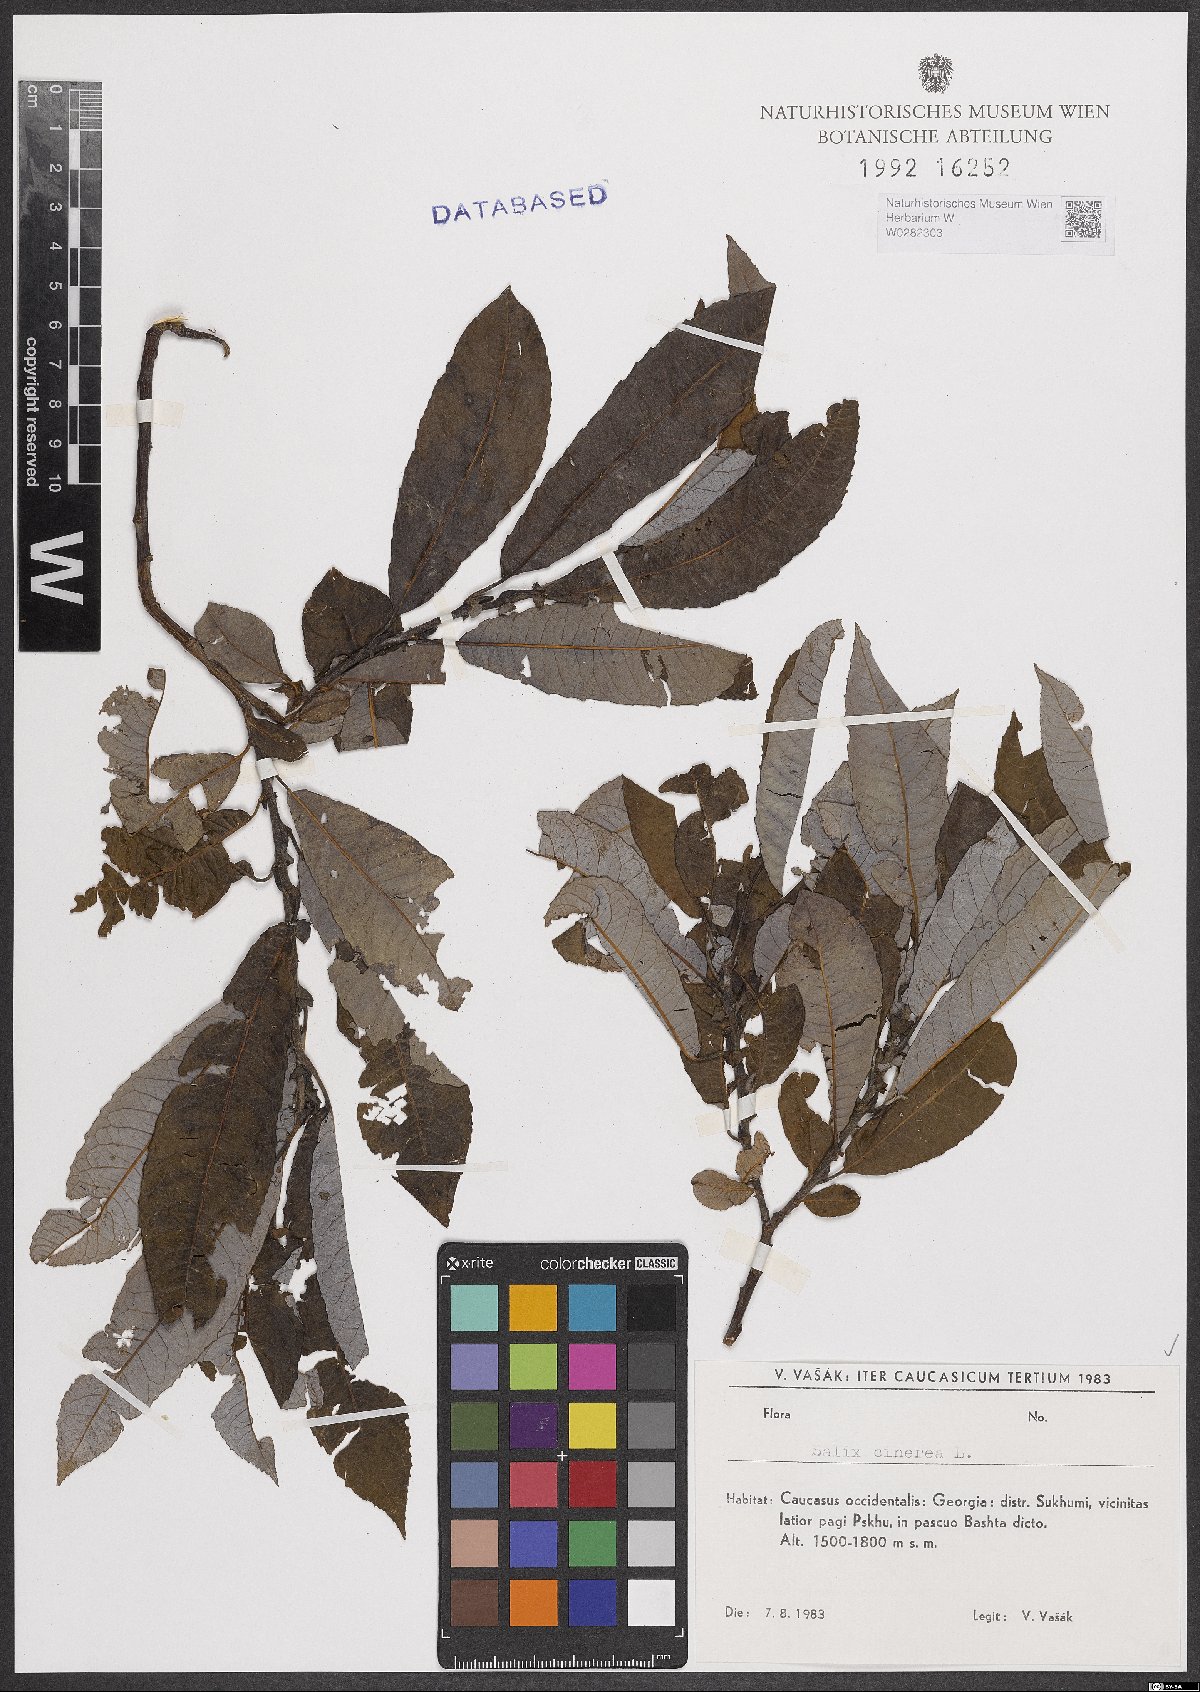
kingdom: Plantae
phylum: Tracheophyta
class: Magnoliopsida
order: Malpighiales
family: Salicaceae
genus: Salix
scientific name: Salix cinerea
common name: Common sallow
